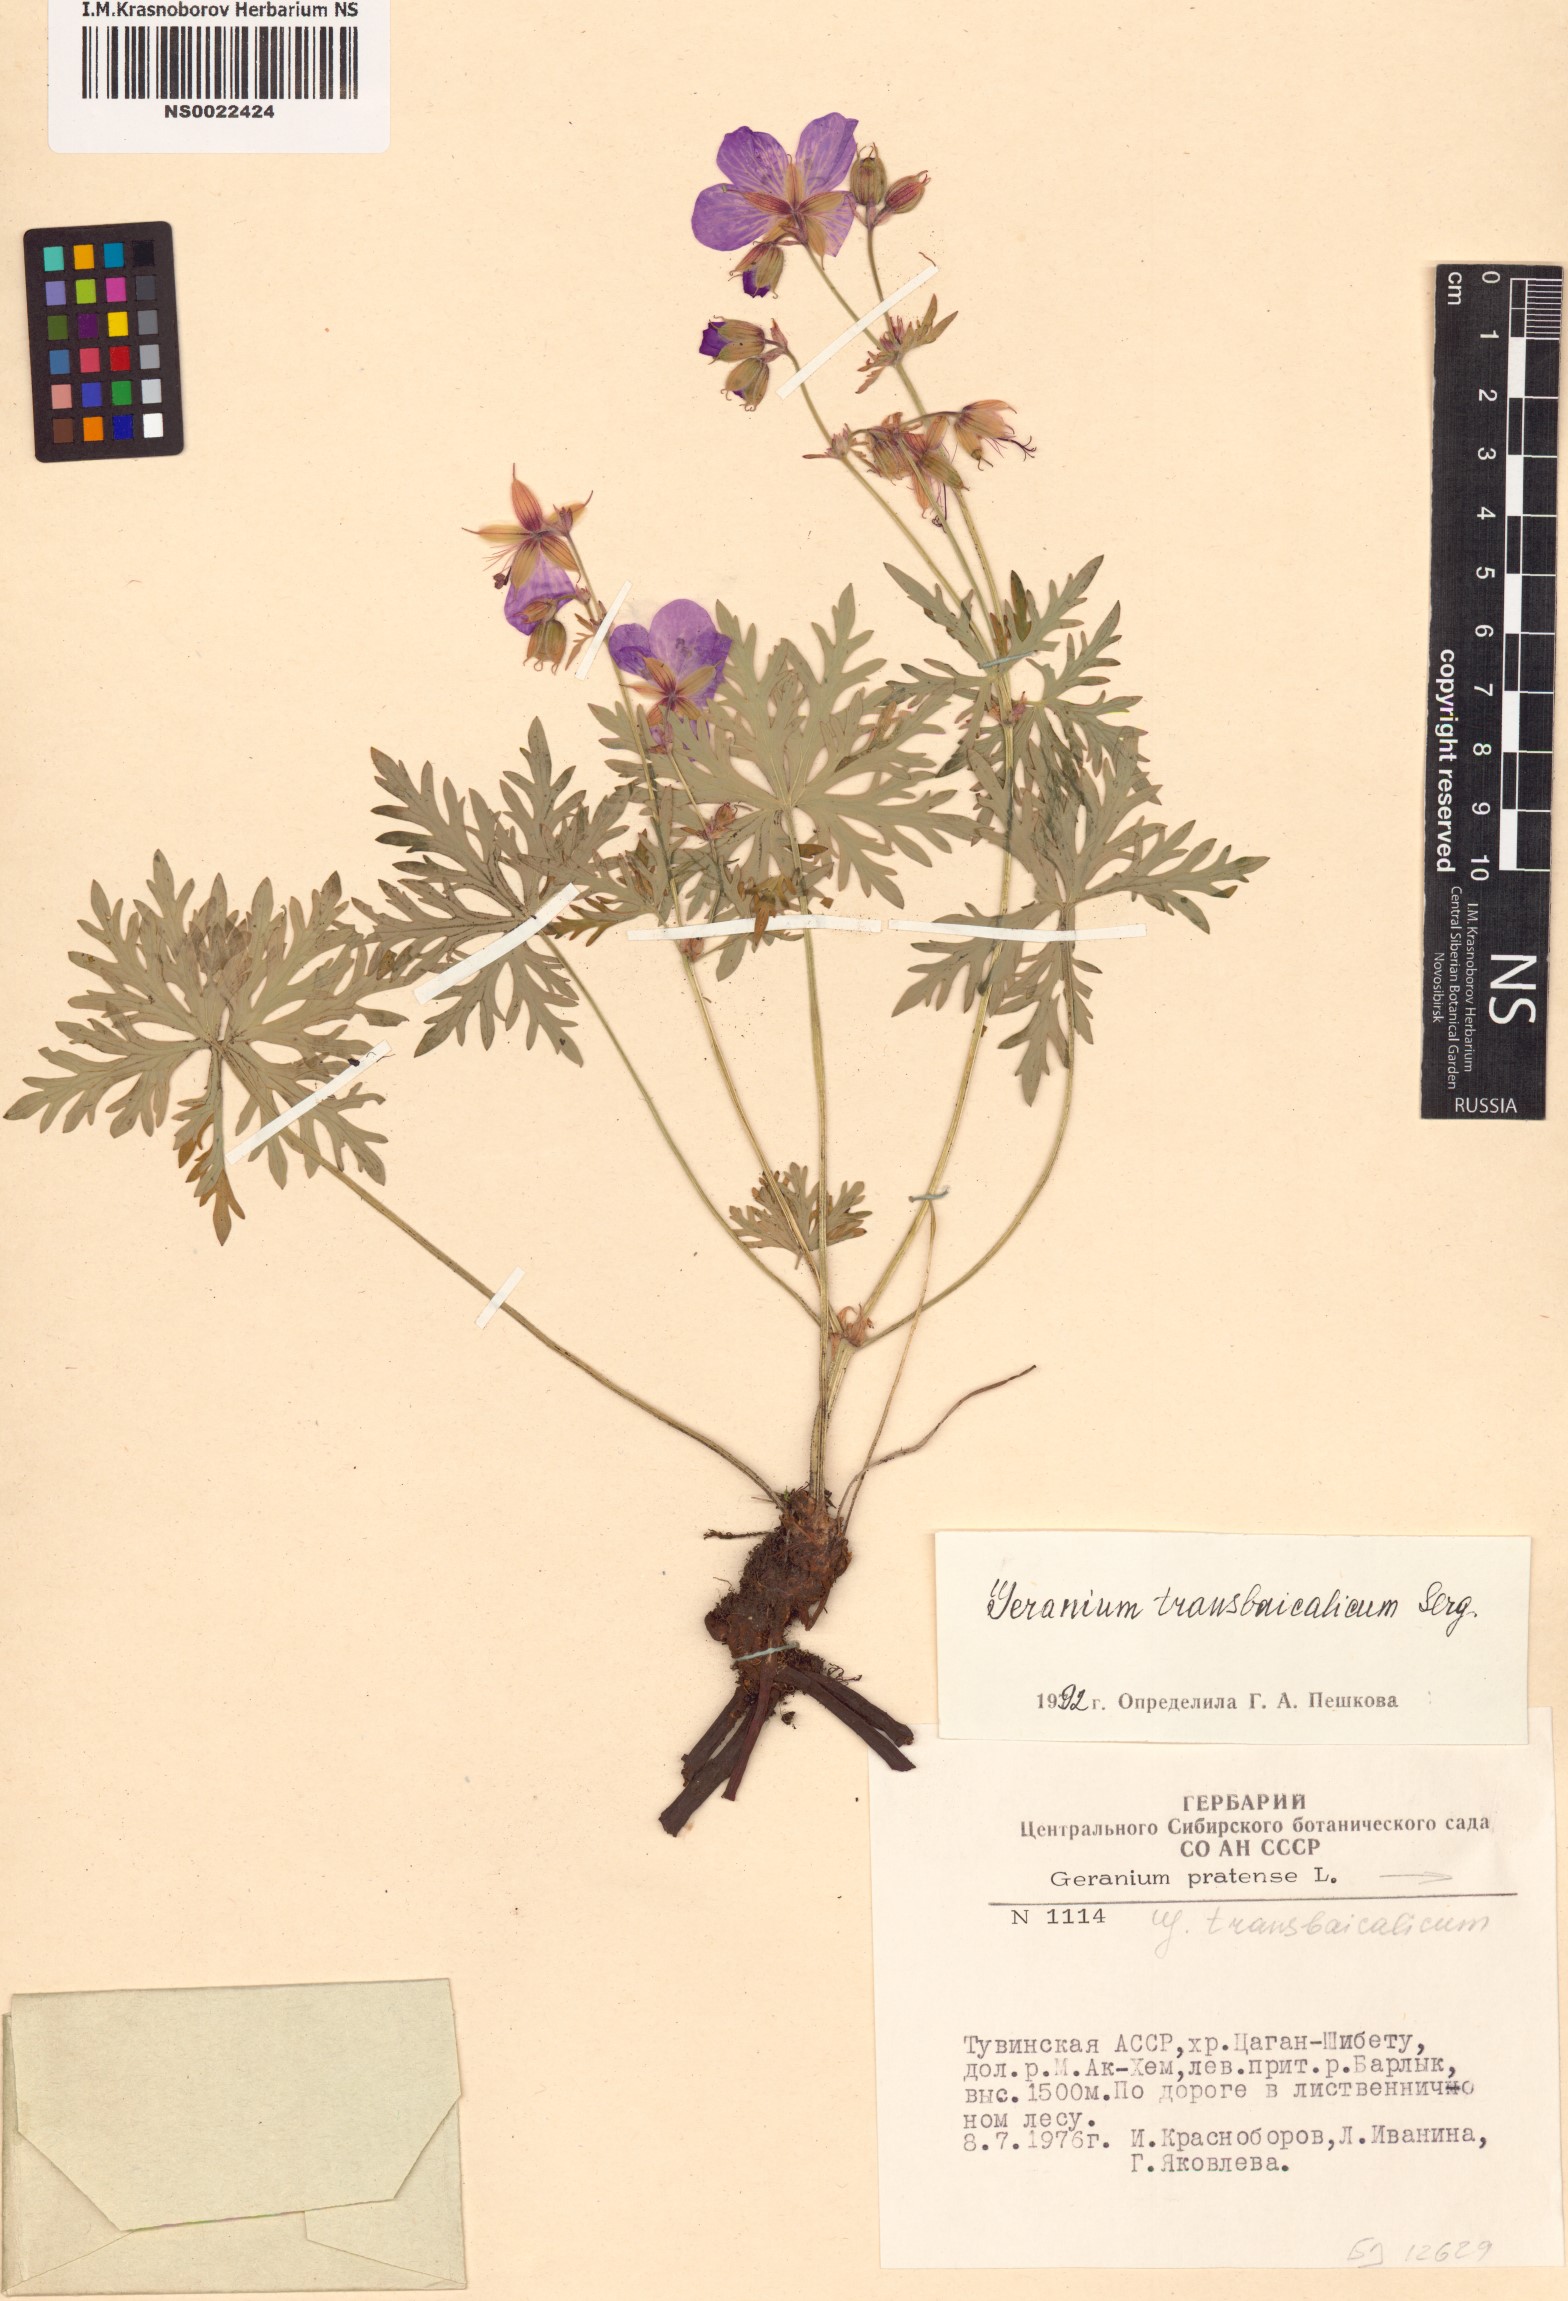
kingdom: Plantae
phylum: Tracheophyta
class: Magnoliopsida
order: Geraniales
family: Geraniaceae
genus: Geranium
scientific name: Geranium pratense
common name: Meadow crane's-bill
